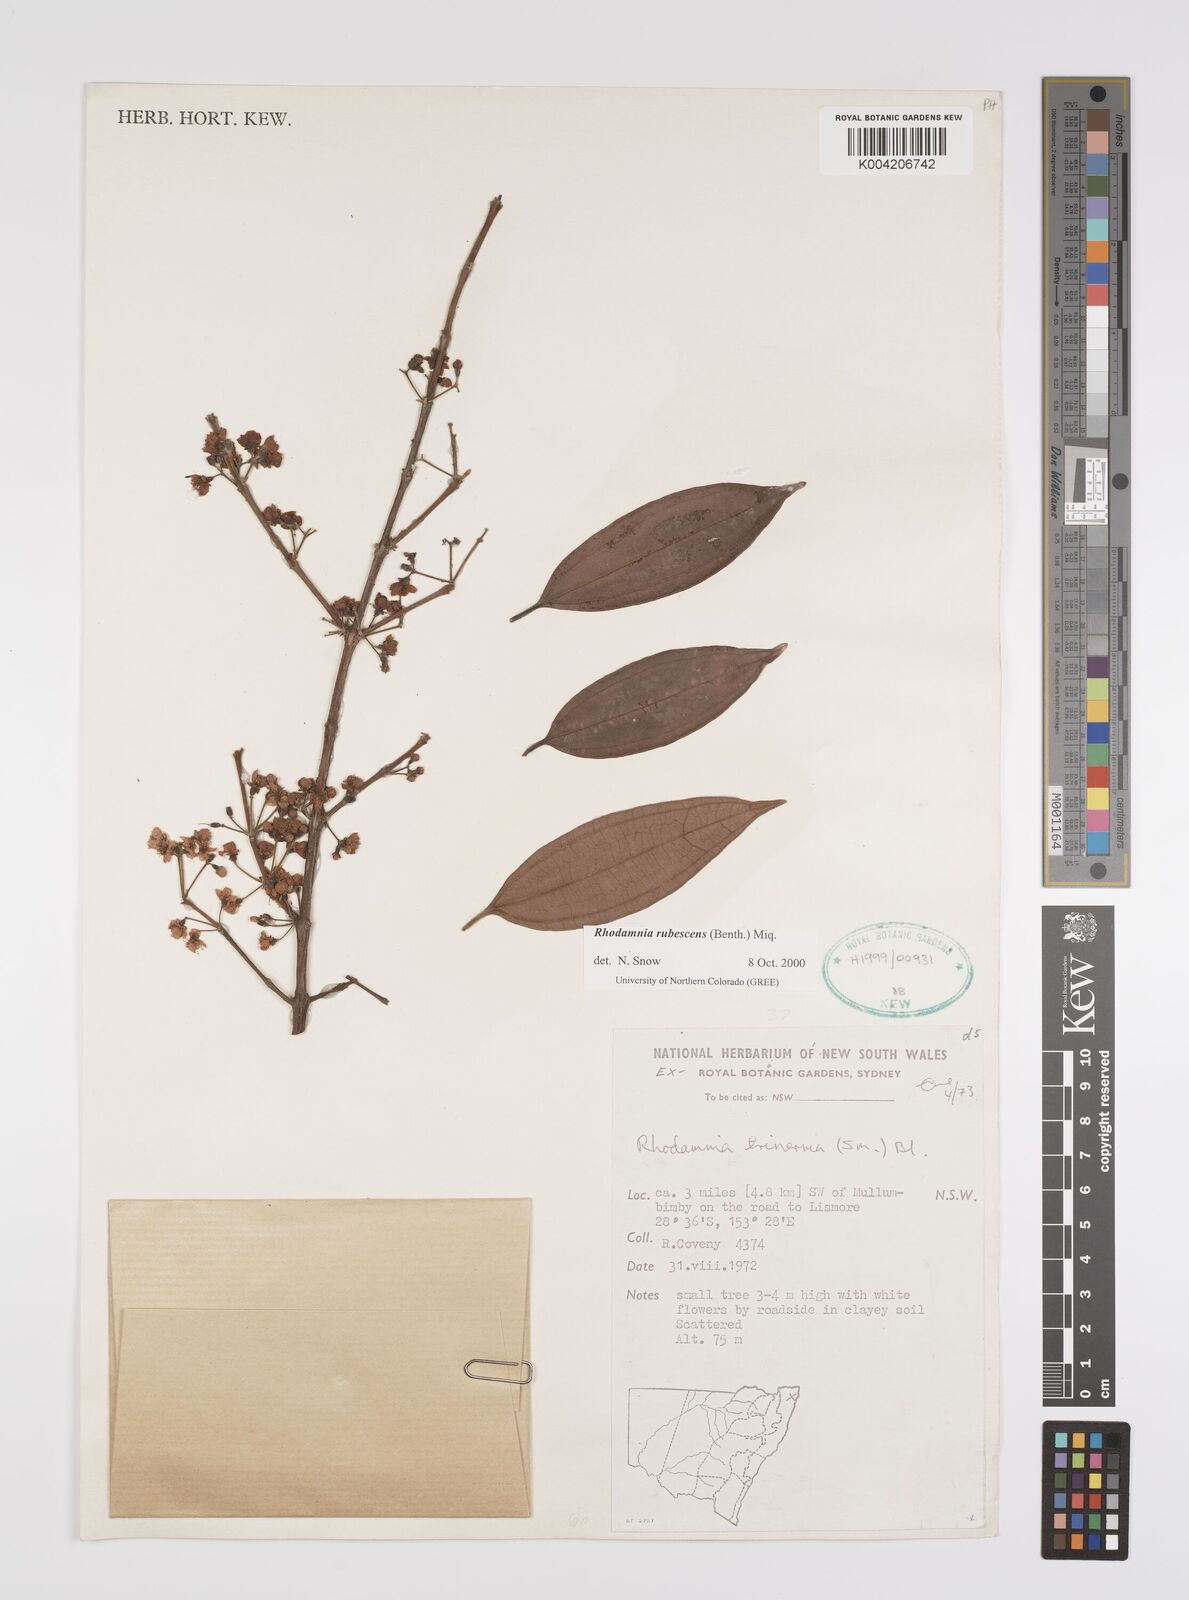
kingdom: Plantae
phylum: Tracheophyta
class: Magnoliopsida
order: Myrtales
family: Myrtaceae
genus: Rhodamnia
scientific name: Rhodamnia rubescens
